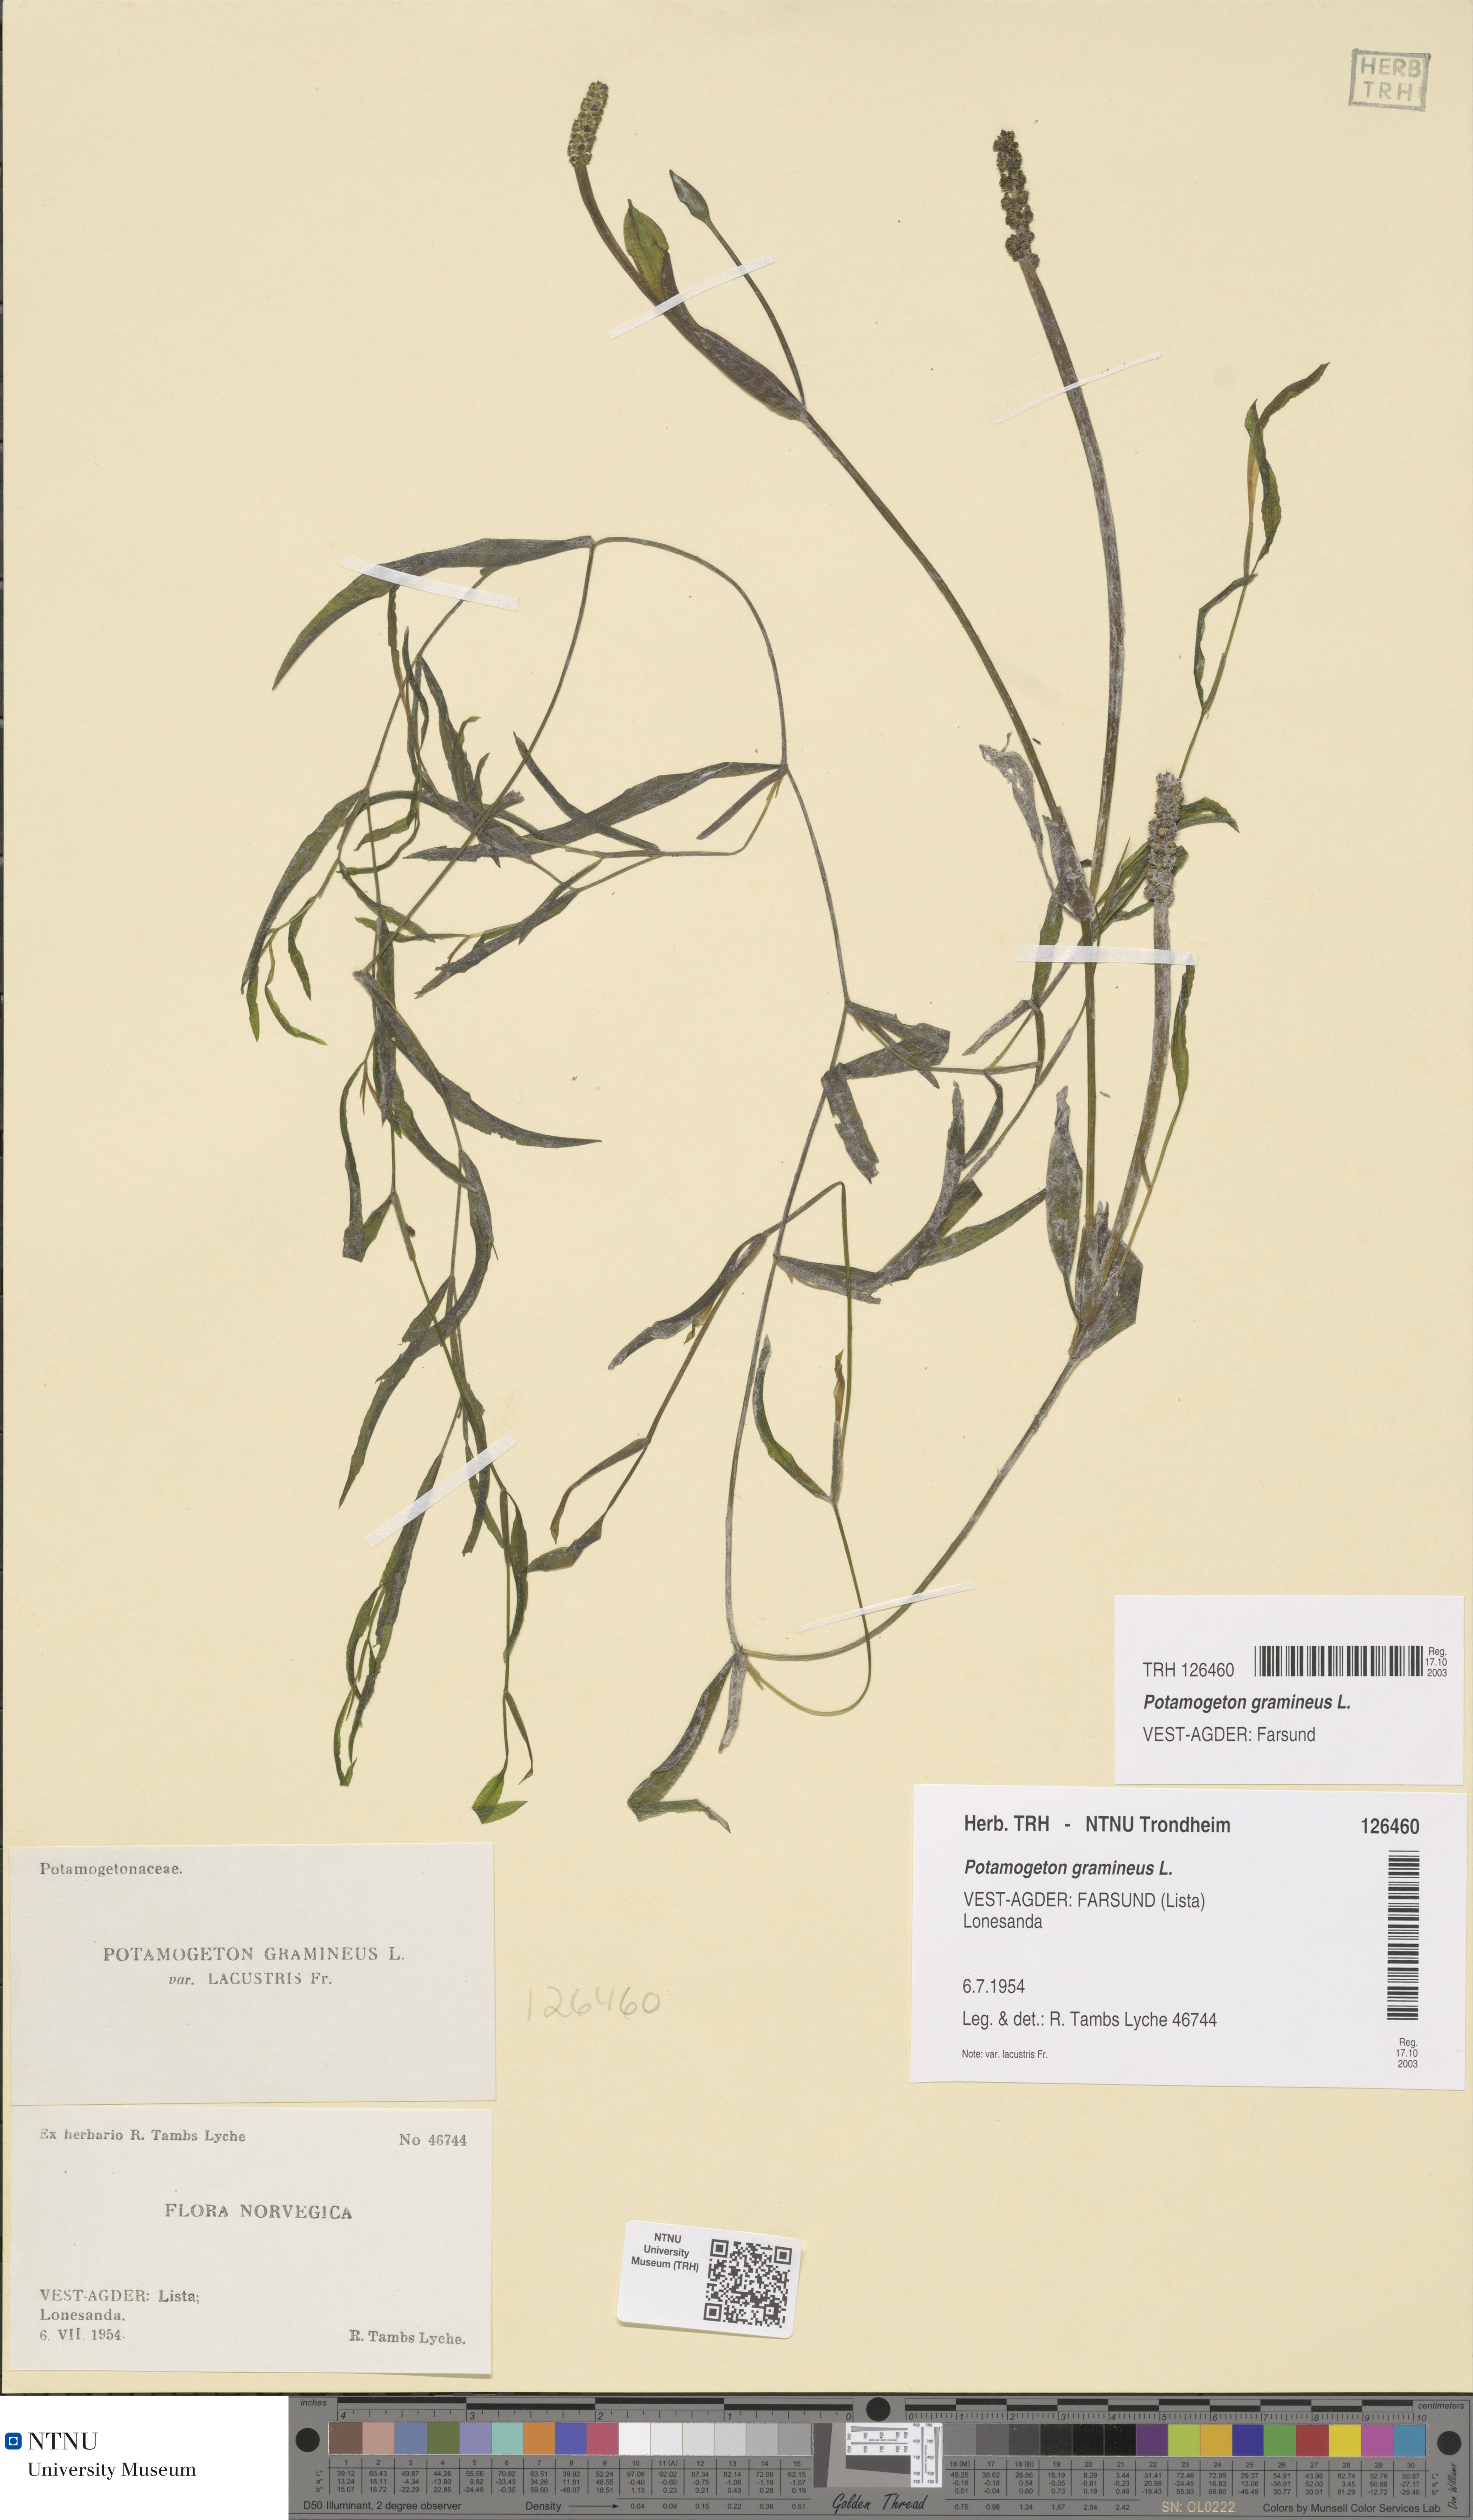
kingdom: Plantae
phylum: Tracheophyta
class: Liliopsida
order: Alismatales
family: Potamogetonaceae
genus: Potamogeton
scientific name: Potamogeton gramineus
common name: Various-leaved pondweed
